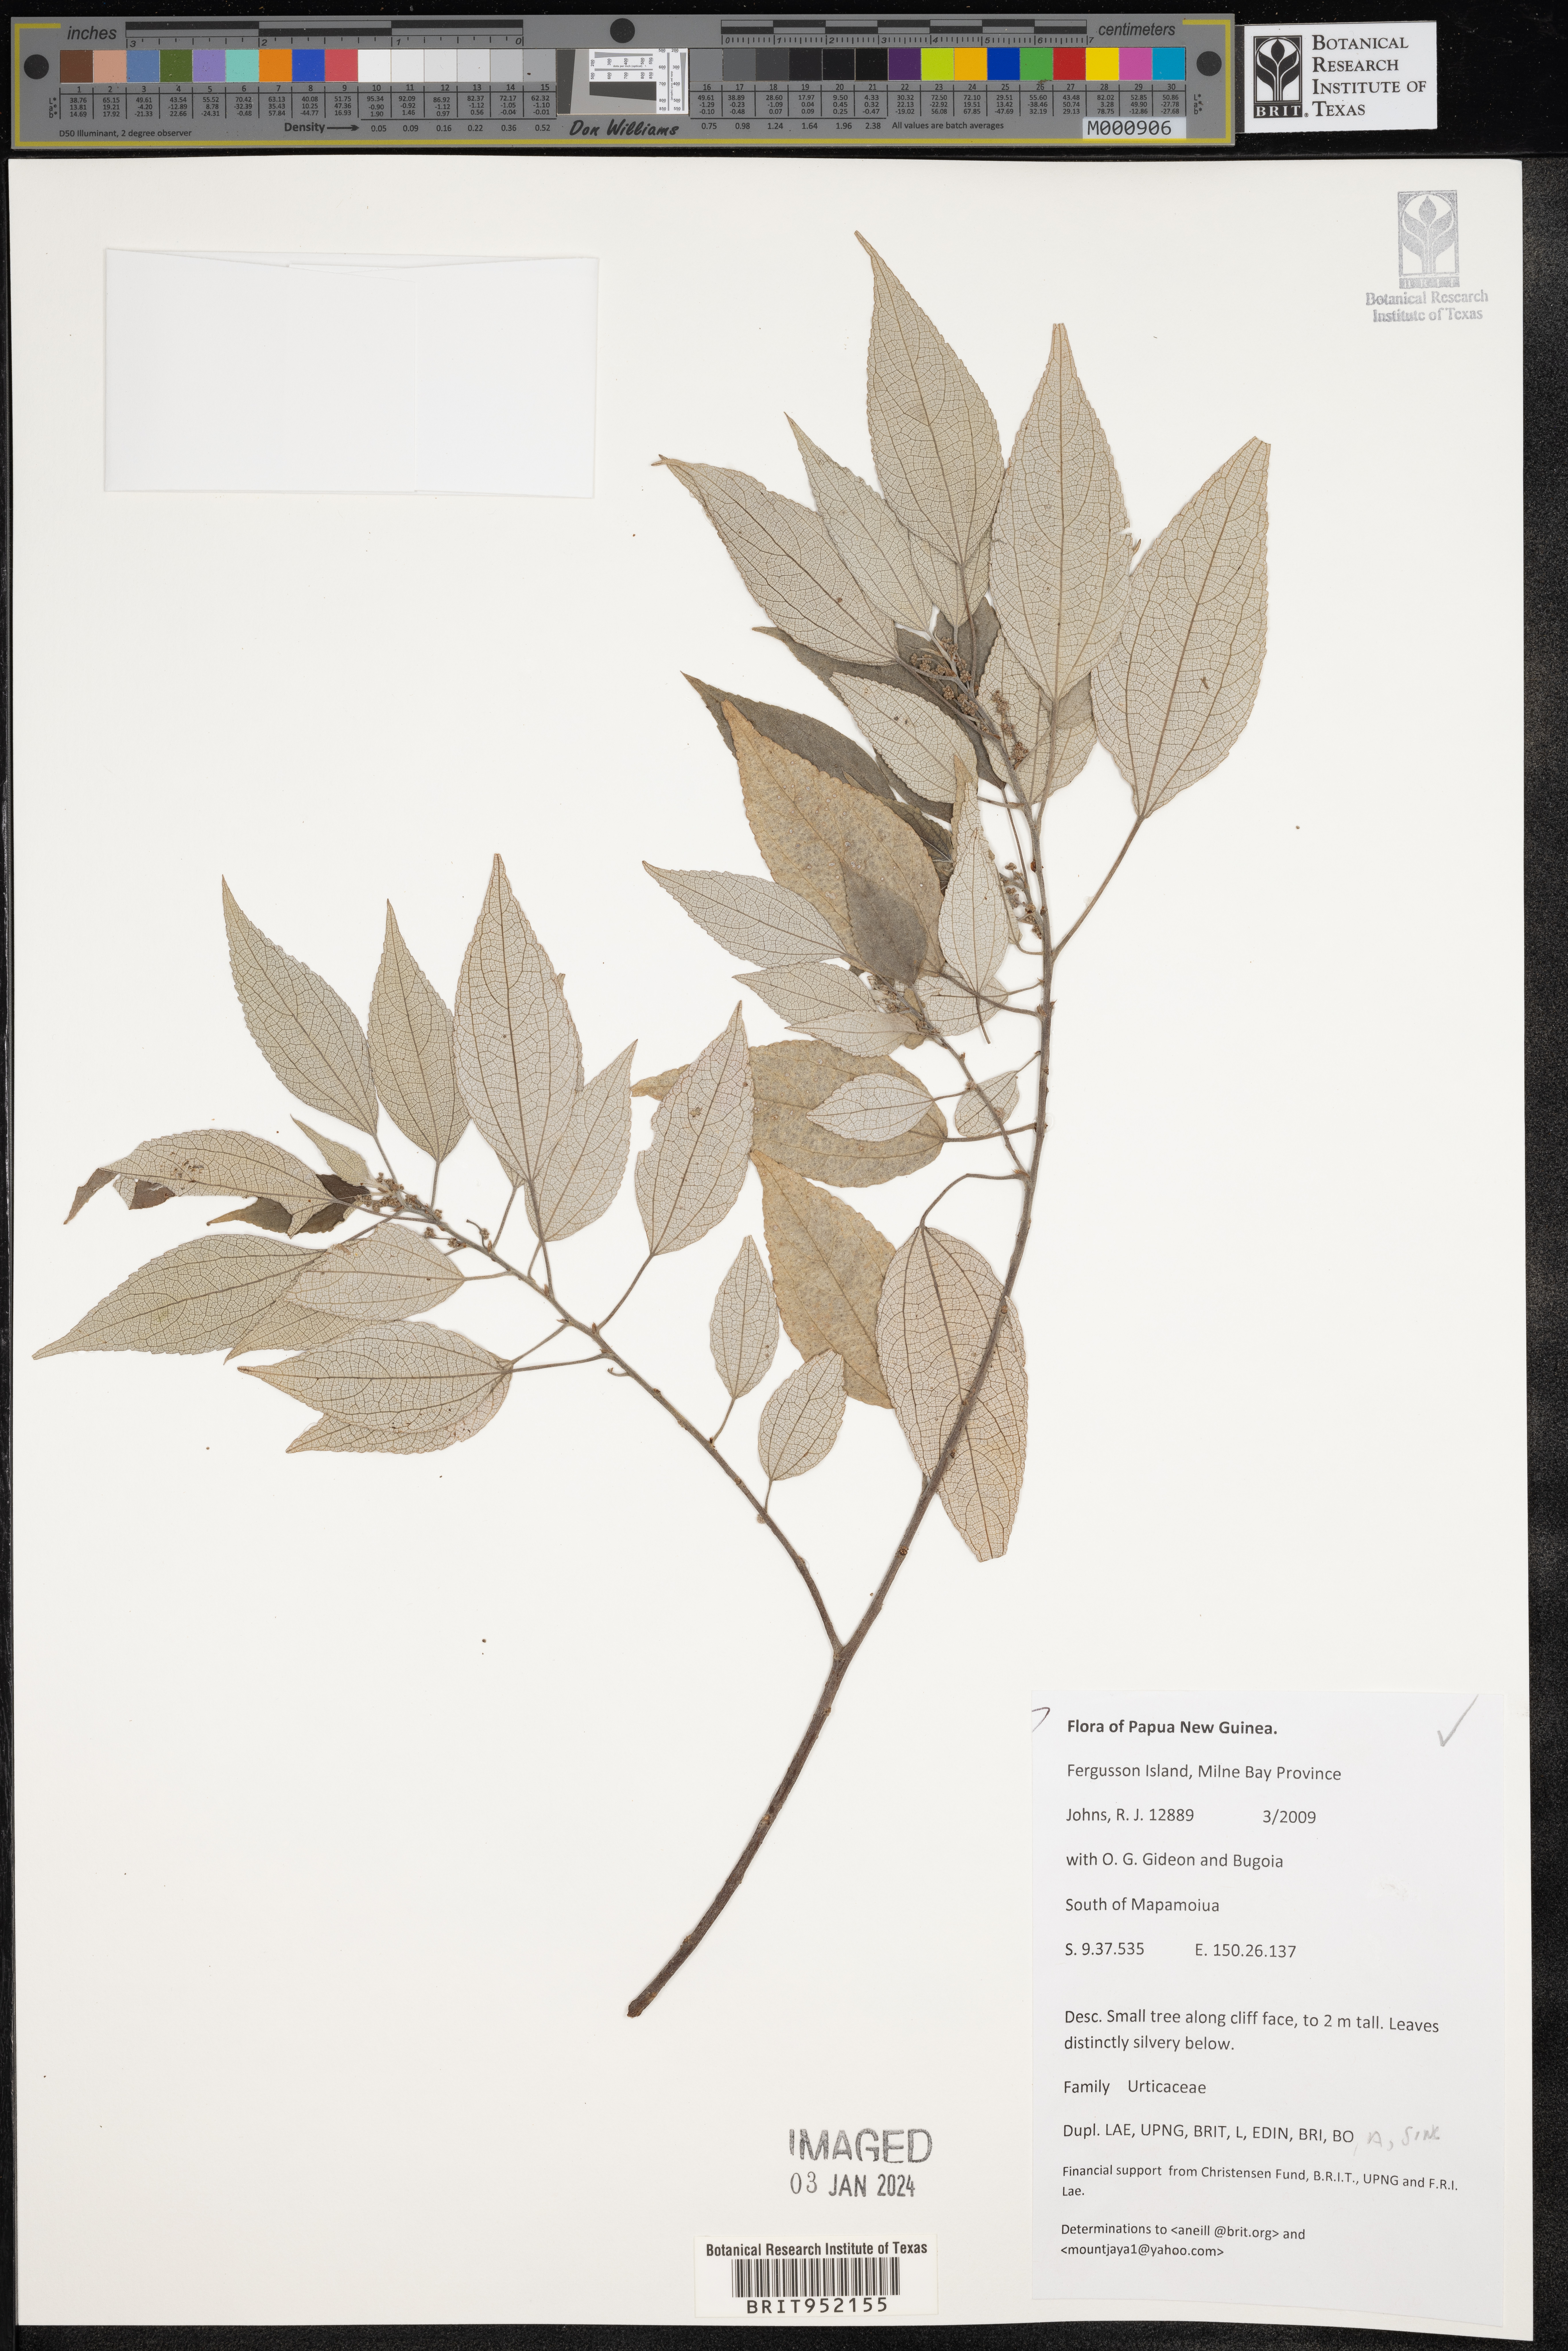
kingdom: Plantae
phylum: Tracheophyta
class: Magnoliopsida
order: Rosales
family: Urticaceae
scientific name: Urticaceae
